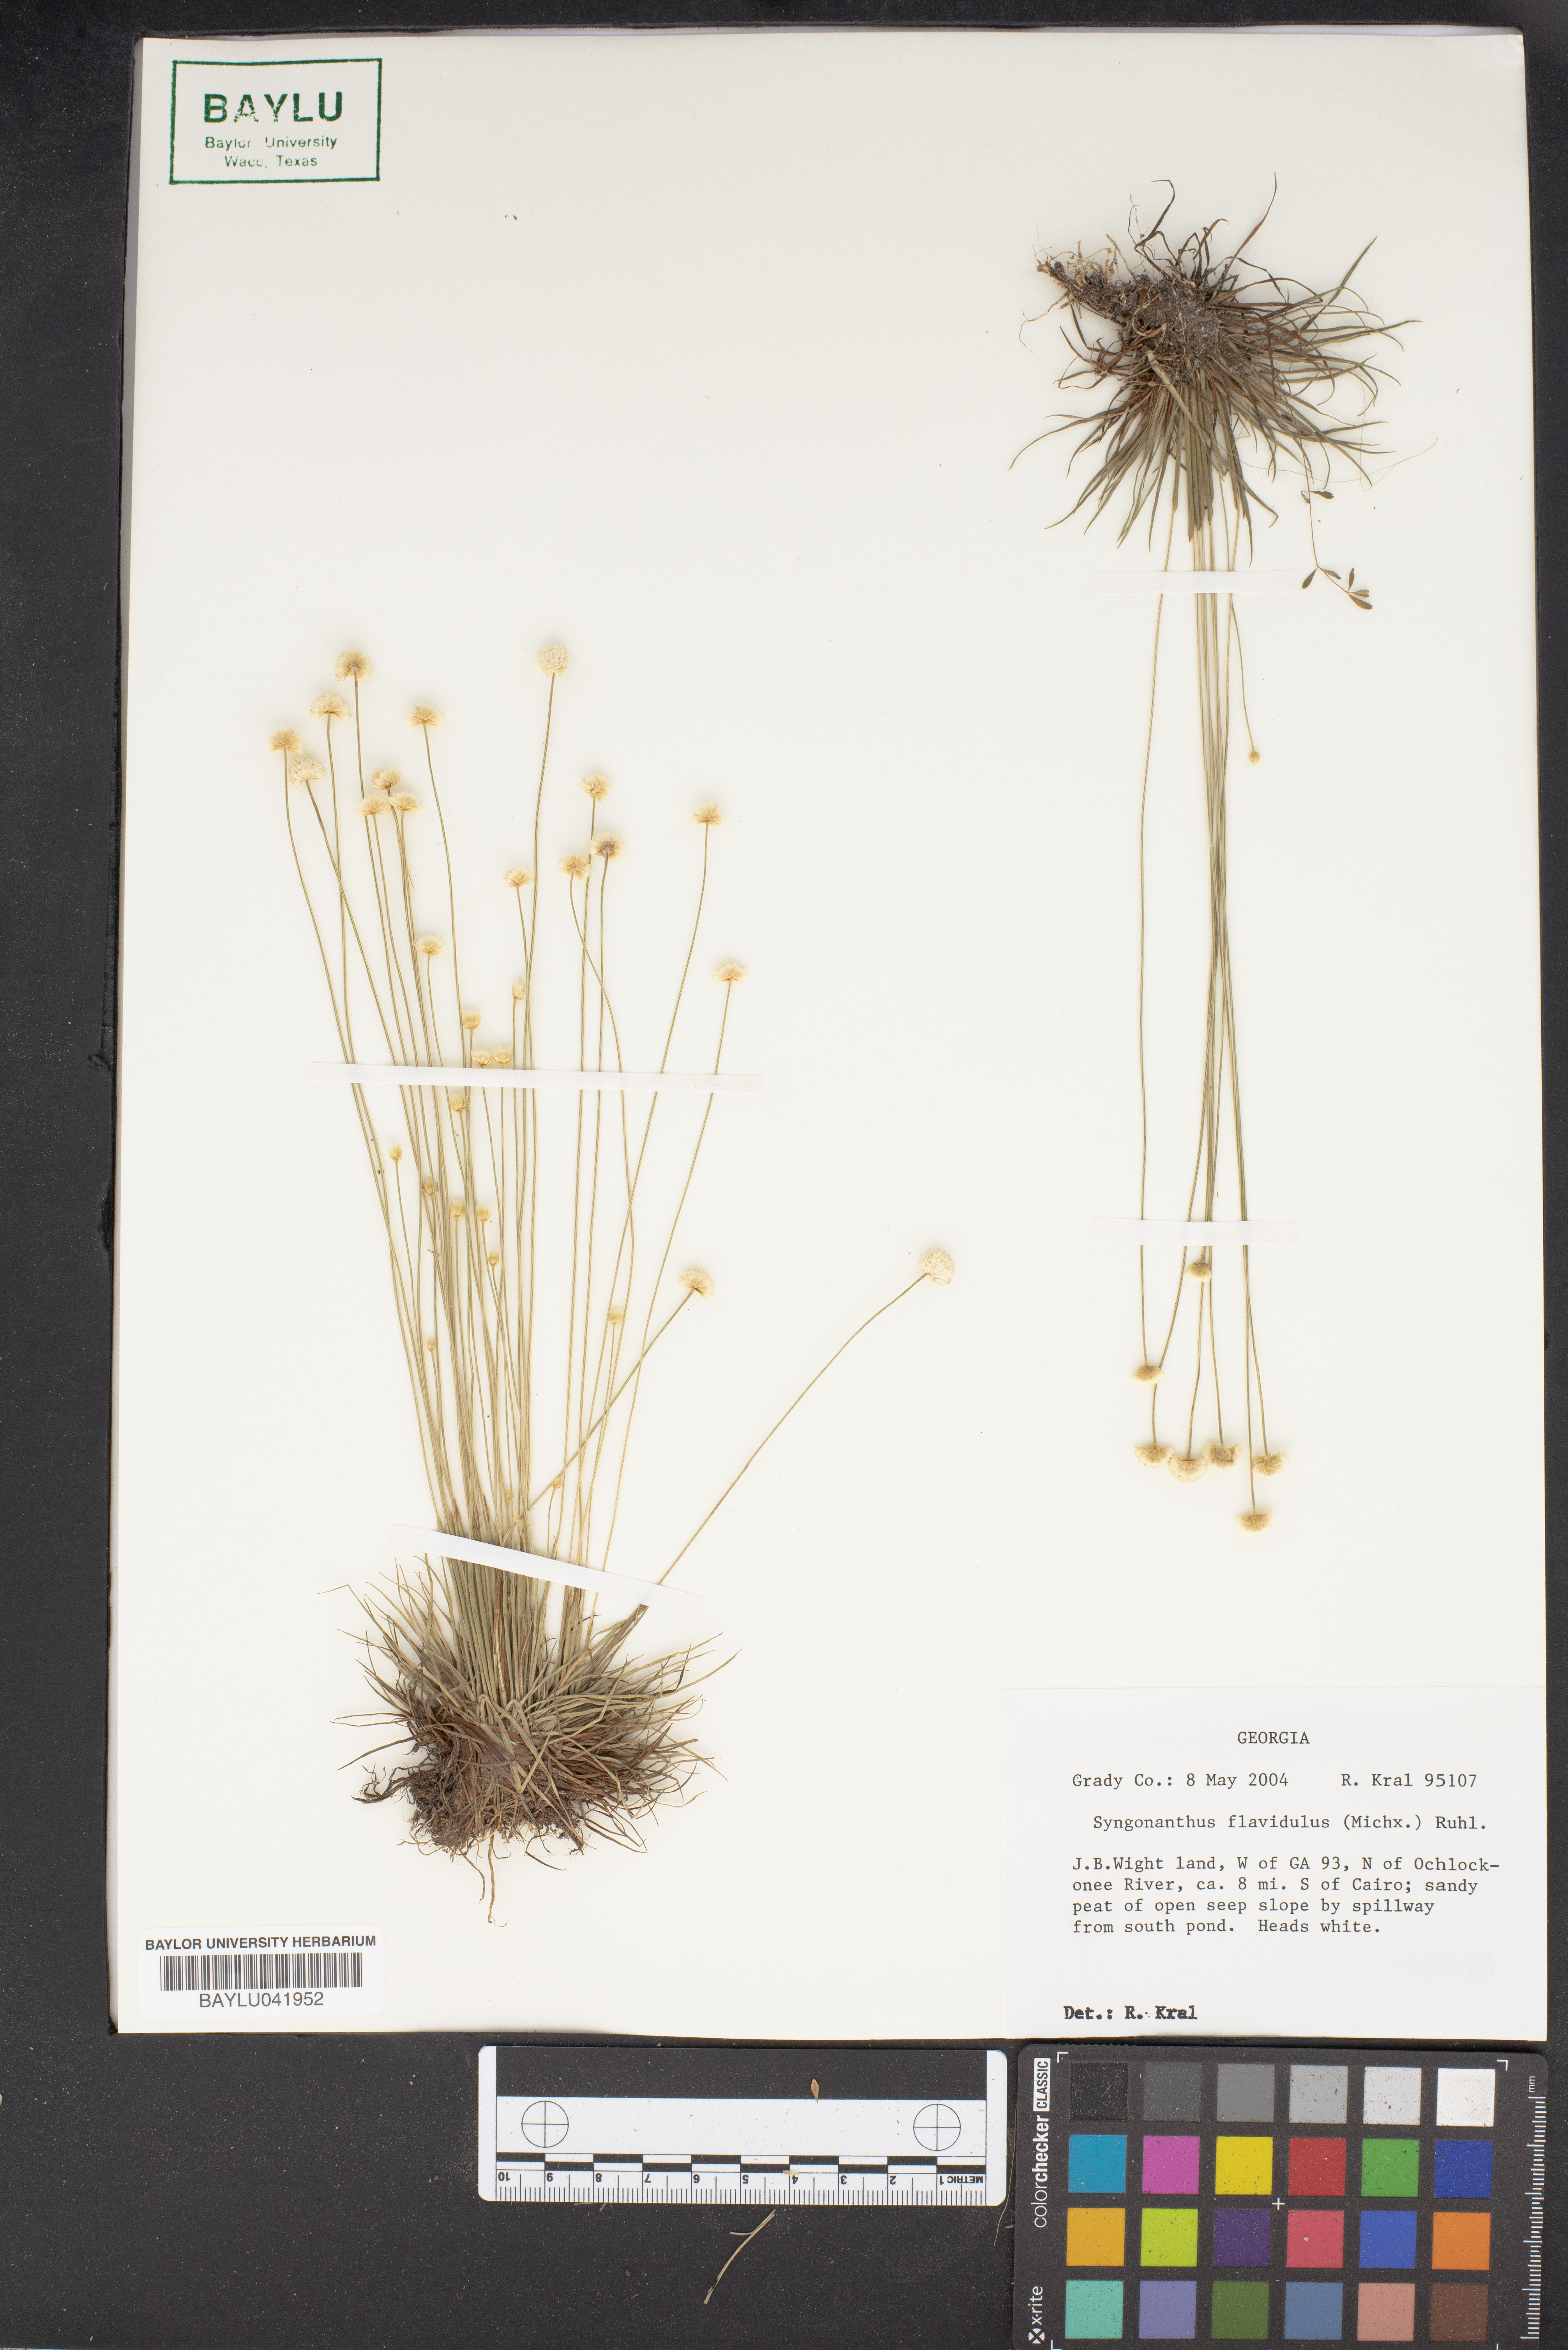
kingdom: Plantae
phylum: Tracheophyta
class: Liliopsida
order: Poales
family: Eriocaulaceae
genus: Syngonanthus
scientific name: Syngonanthus flavidulus
